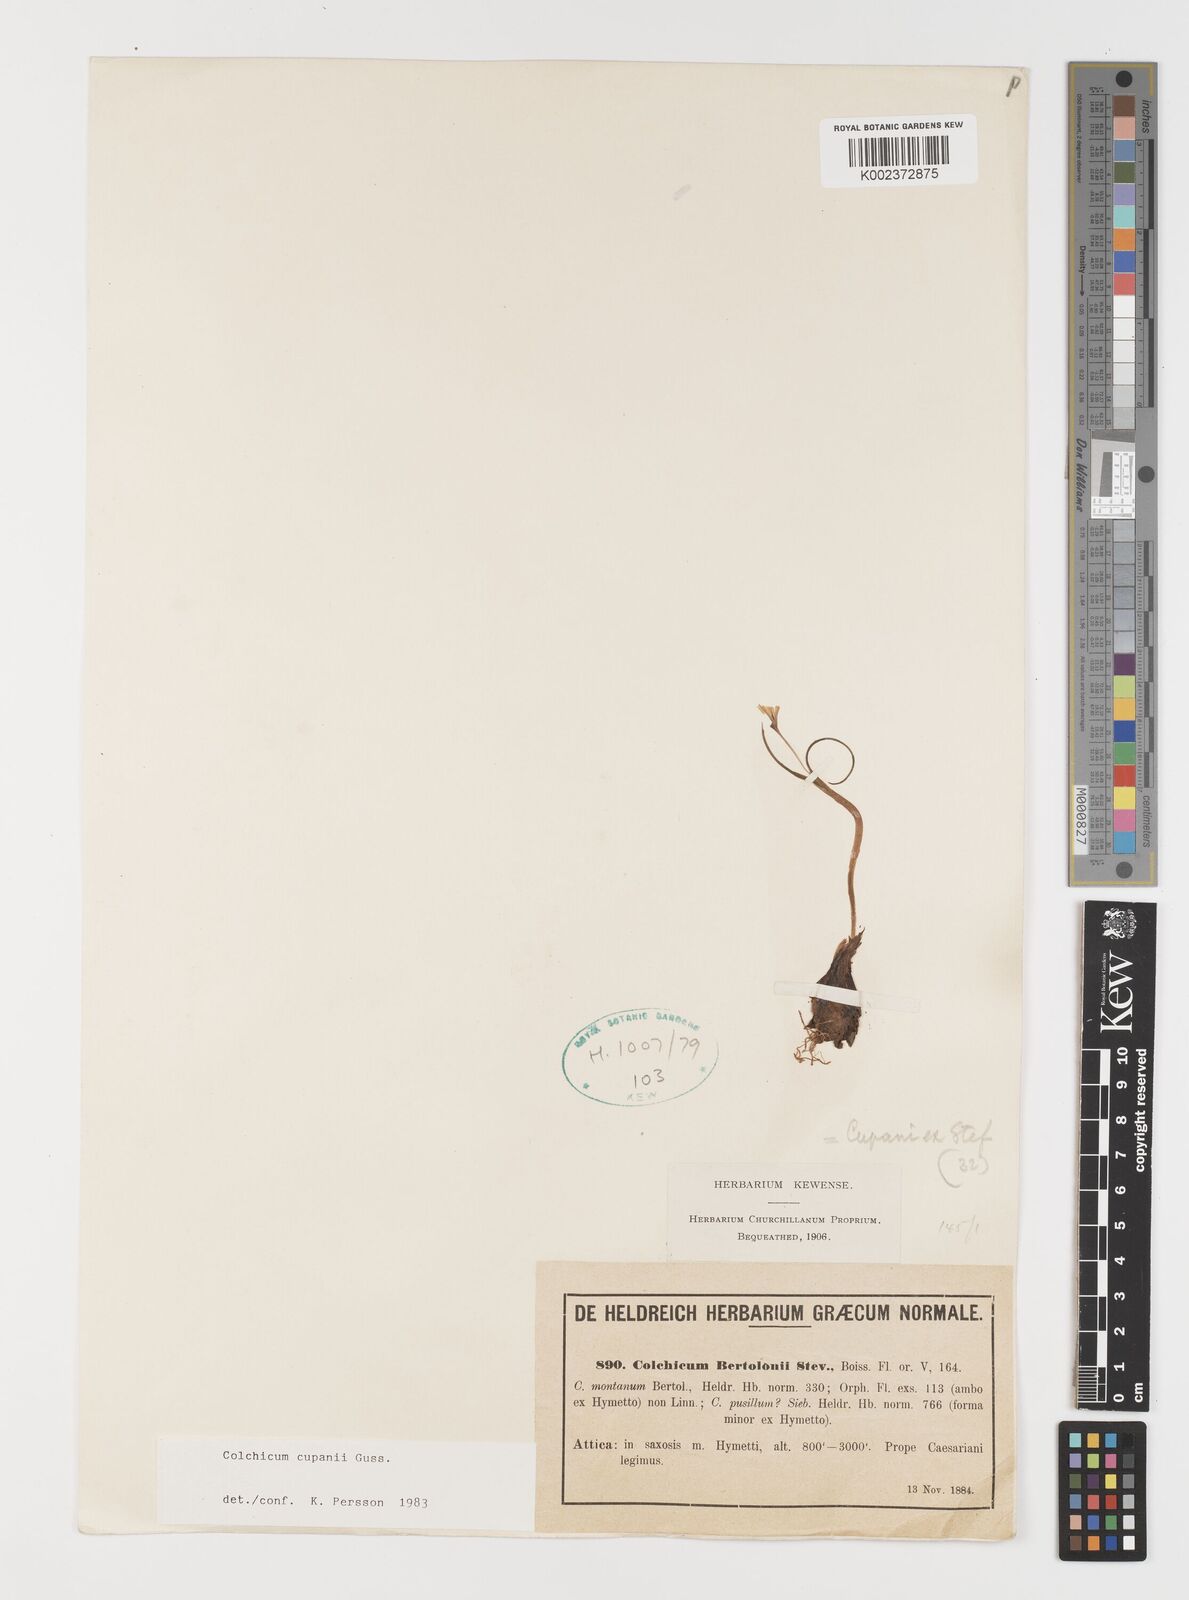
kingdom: Plantae
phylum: Tracheophyta
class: Liliopsida
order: Liliales
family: Colchicaceae
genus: Colchicum
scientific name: Colchicum cupanii
